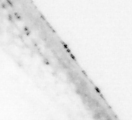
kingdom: Animalia
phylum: Chordata
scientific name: Chordata
